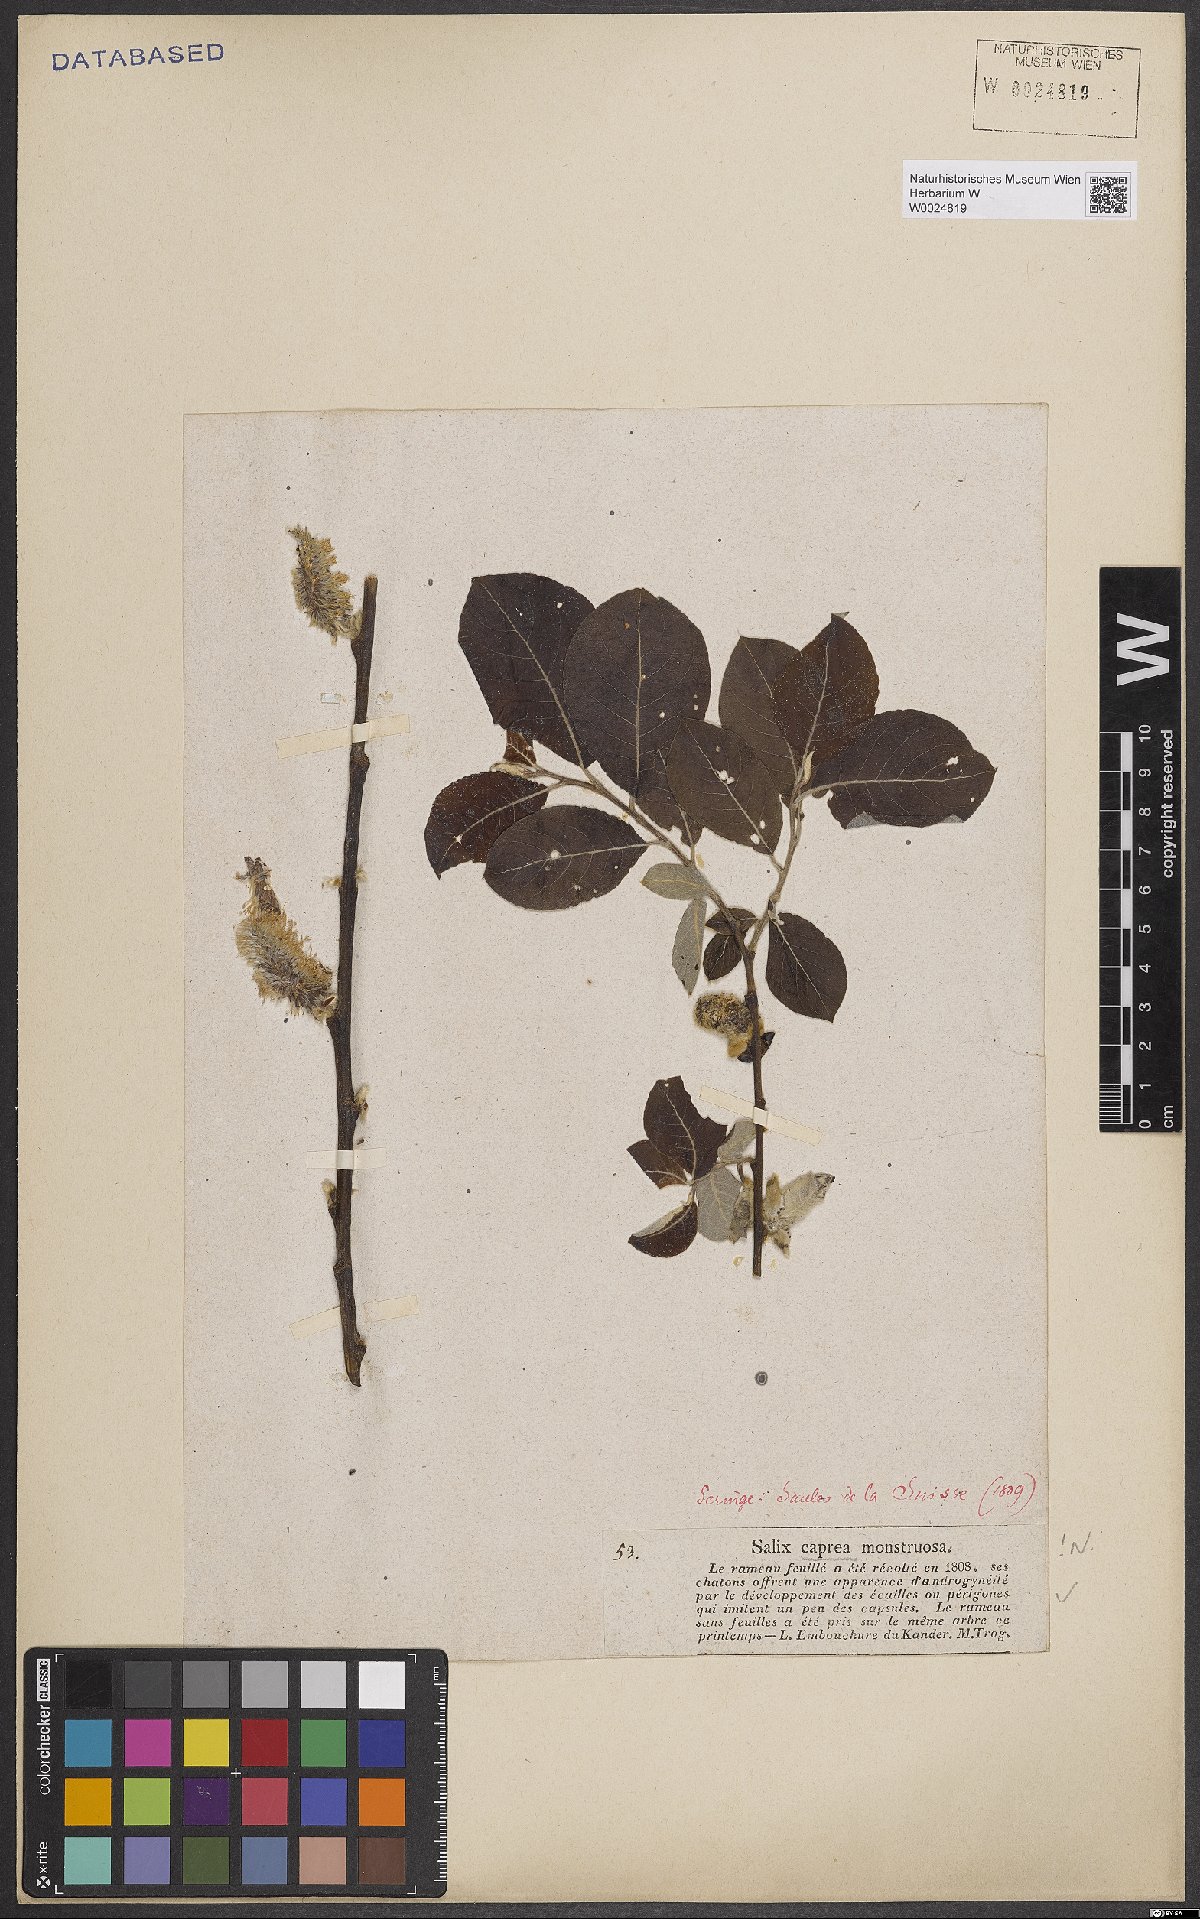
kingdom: Plantae
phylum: Tracheophyta
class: Magnoliopsida
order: Malpighiales
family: Salicaceae
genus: Salix
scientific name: Salix caprea
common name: Goat willow
